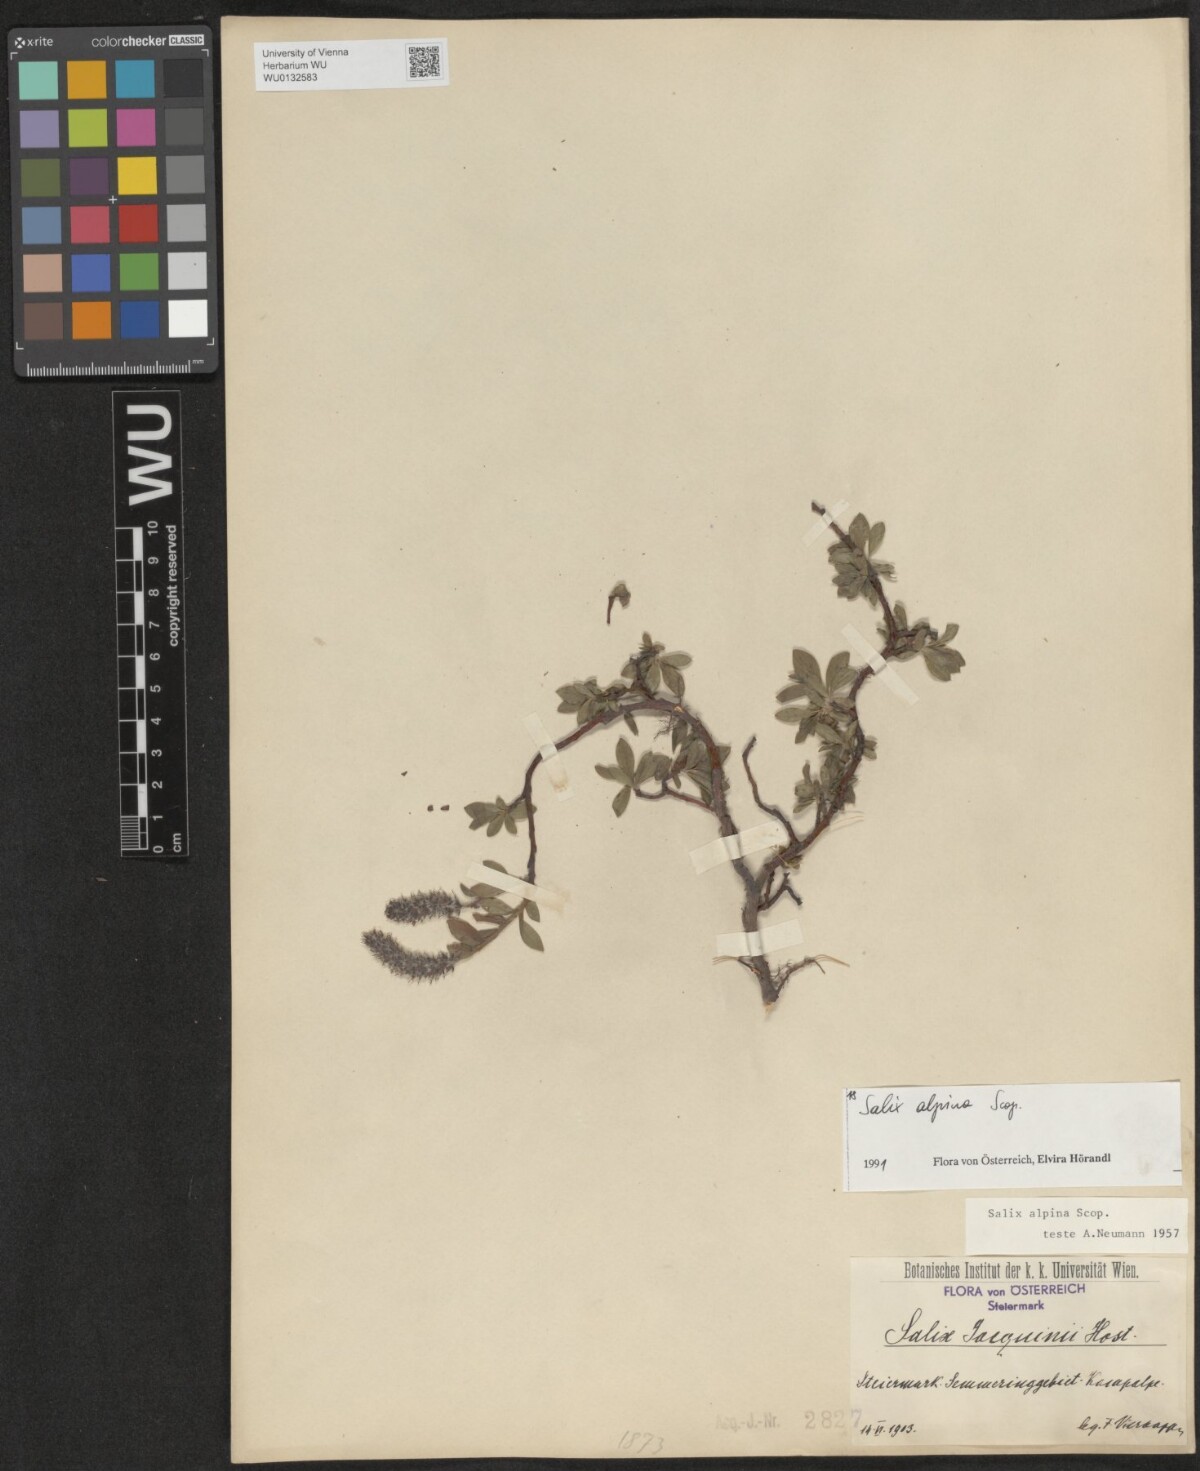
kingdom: Plantae
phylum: Tracheophyta
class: Magnoliopsida
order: Malpighiales
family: Salicaceae
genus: Salix
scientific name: Salix alpina
